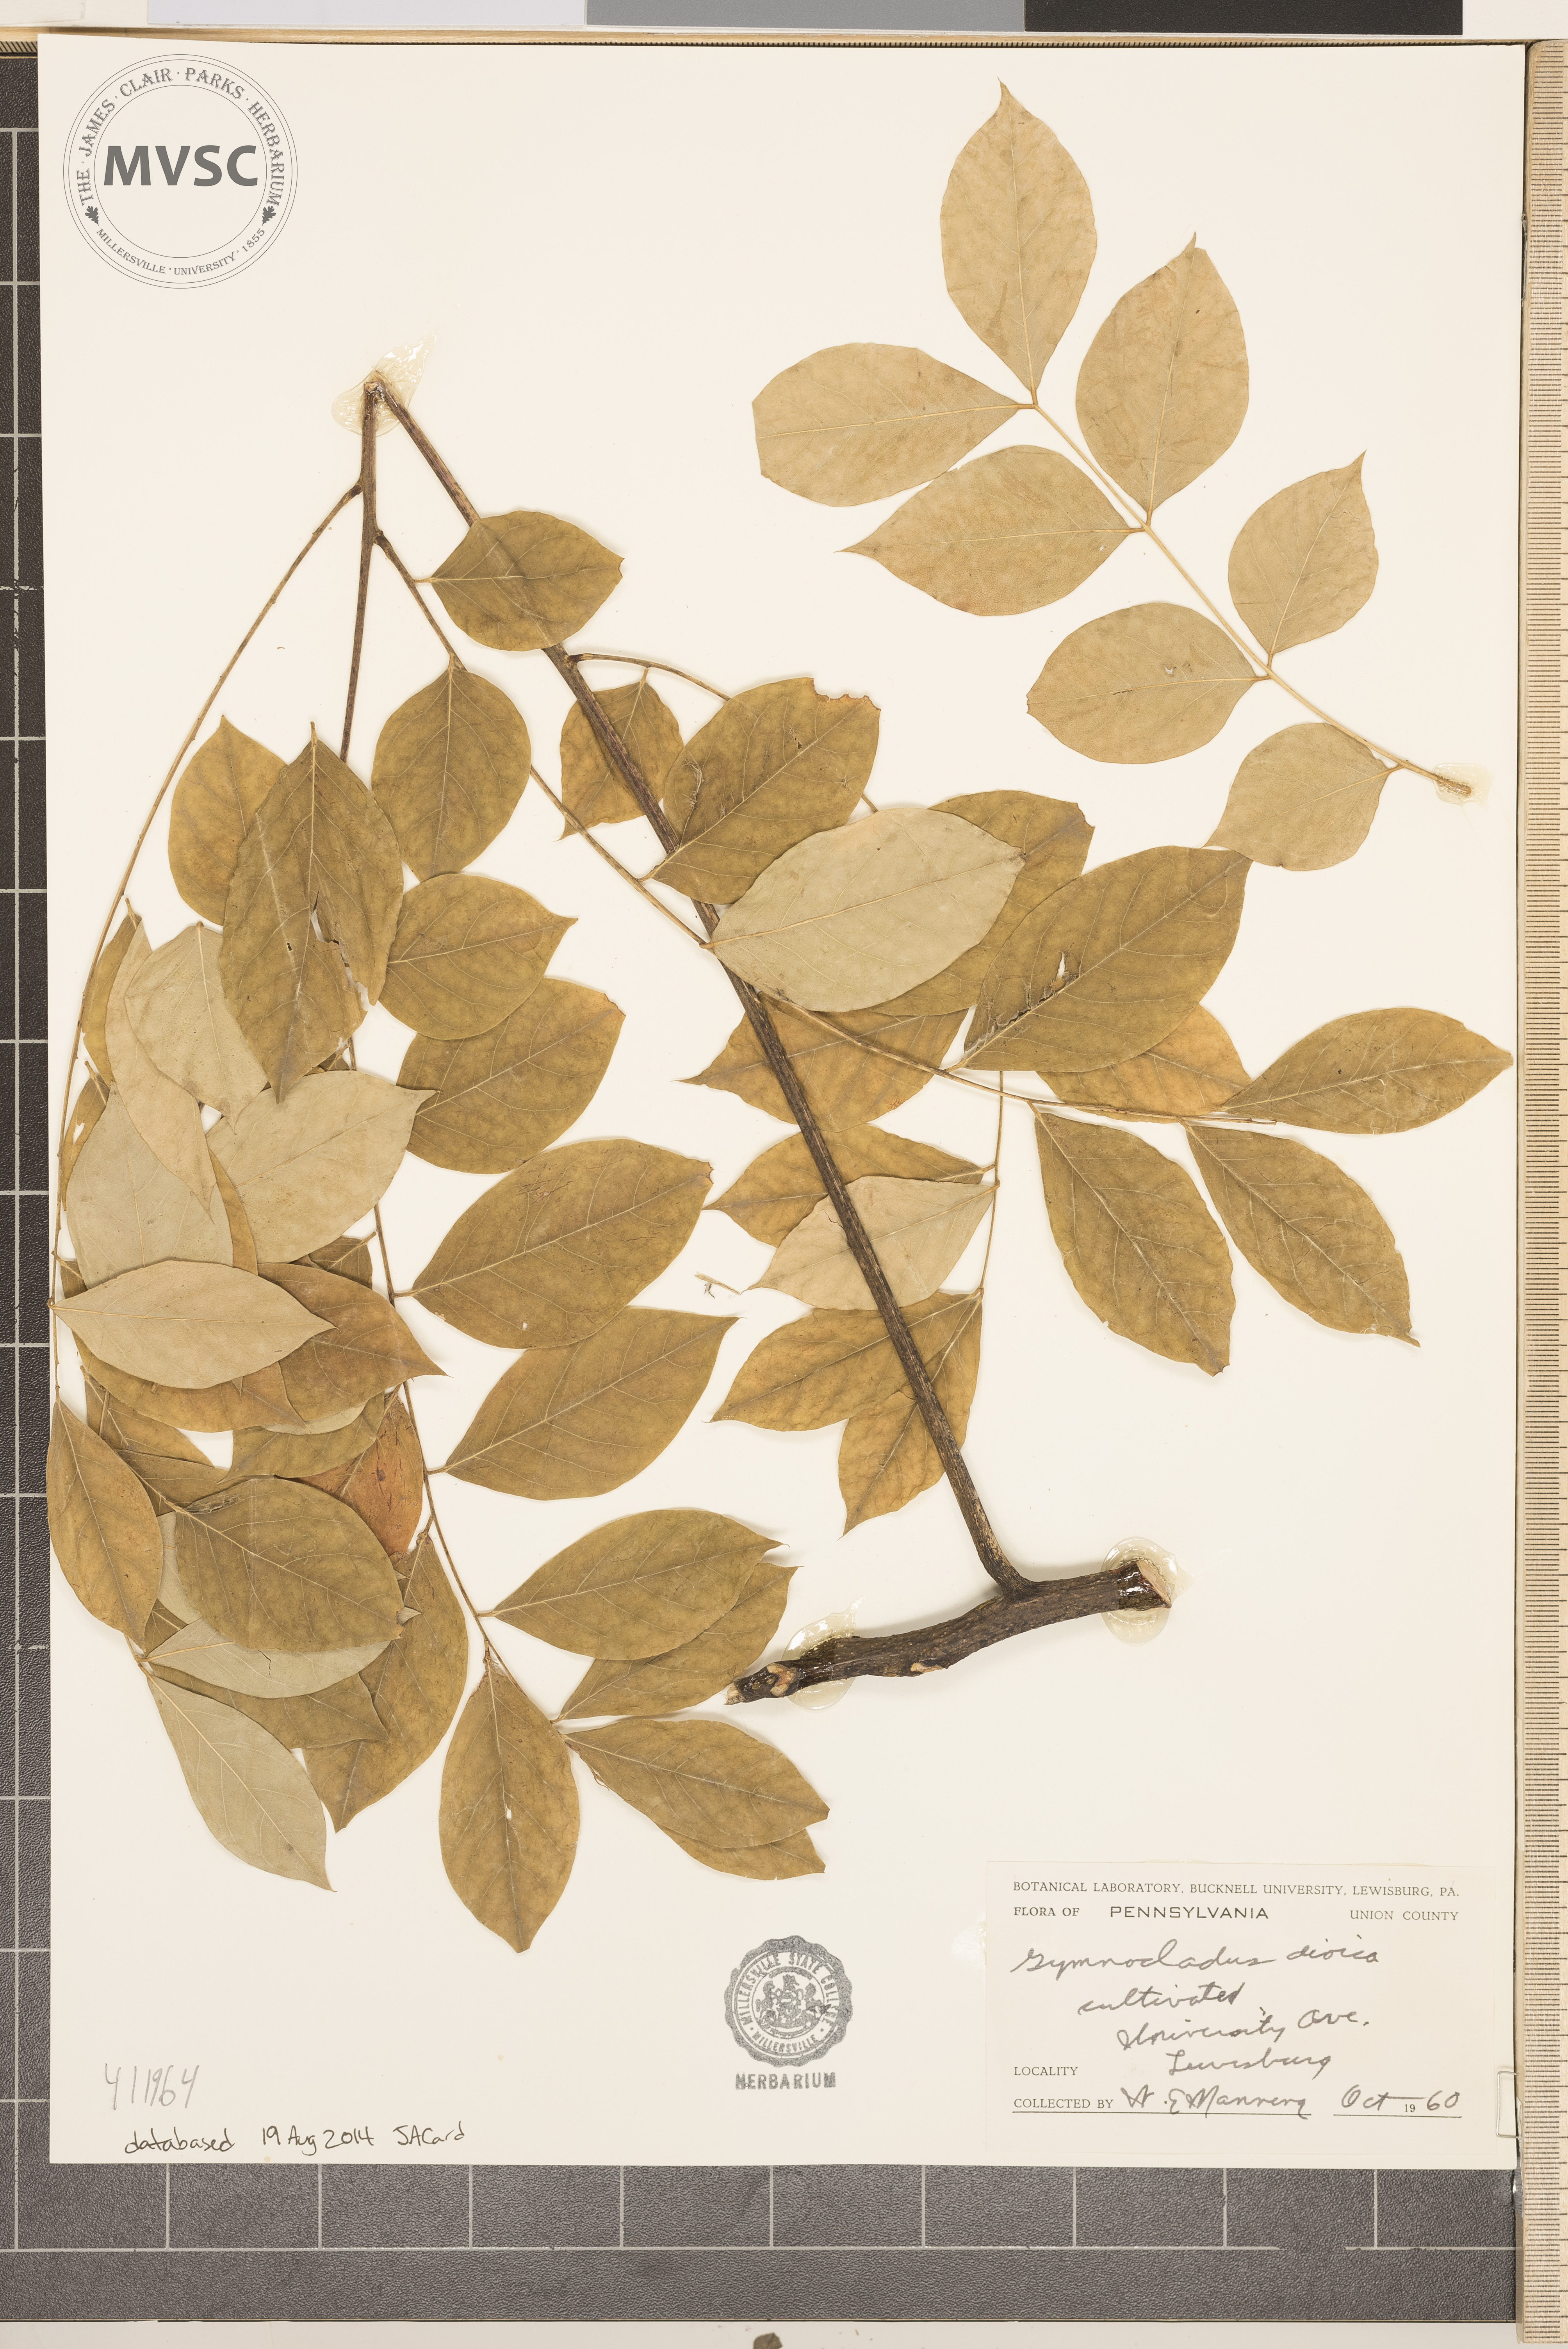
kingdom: Plantae
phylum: Tracheophyta
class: Magnoliopsida
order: Fabales
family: Fabaceae
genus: Gymnocladus
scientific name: Gymnocladus dioicus
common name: Kentucky coffee-tree
